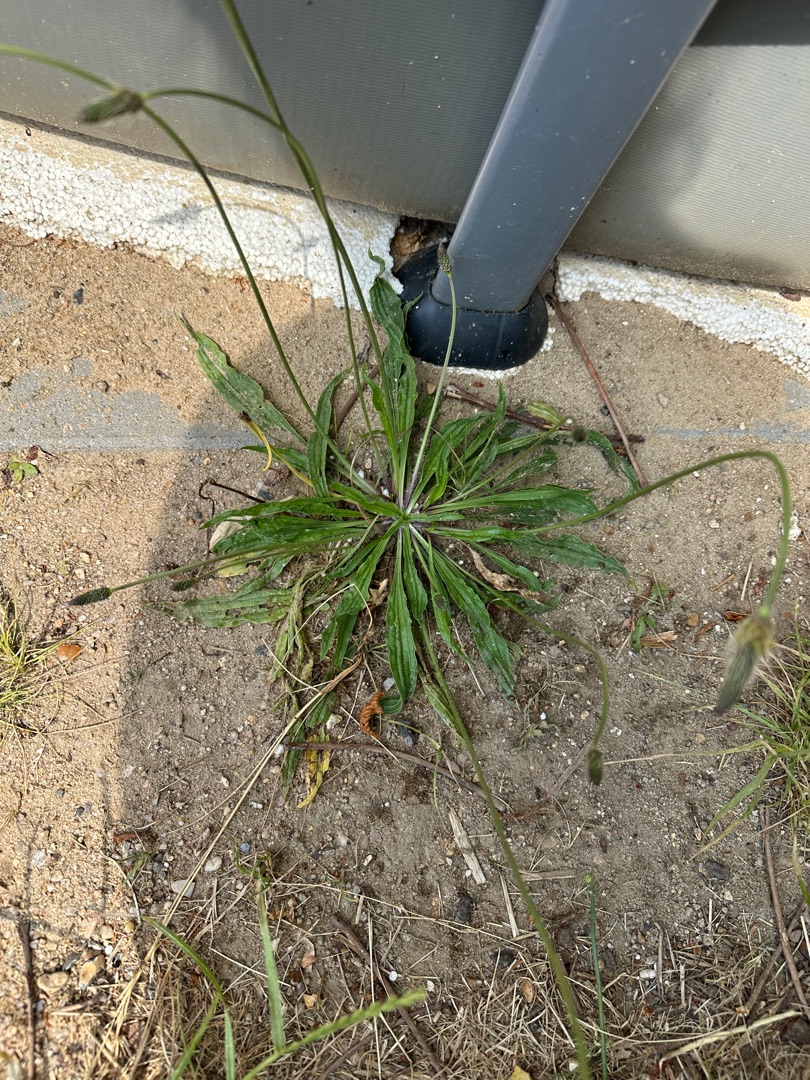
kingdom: Plantae
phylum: Tracheophyta
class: Magnoliopsida
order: Lamiales
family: Plantaginaceae
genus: Plantago
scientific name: Plantago lanceolata
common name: Lancet-vejbred
